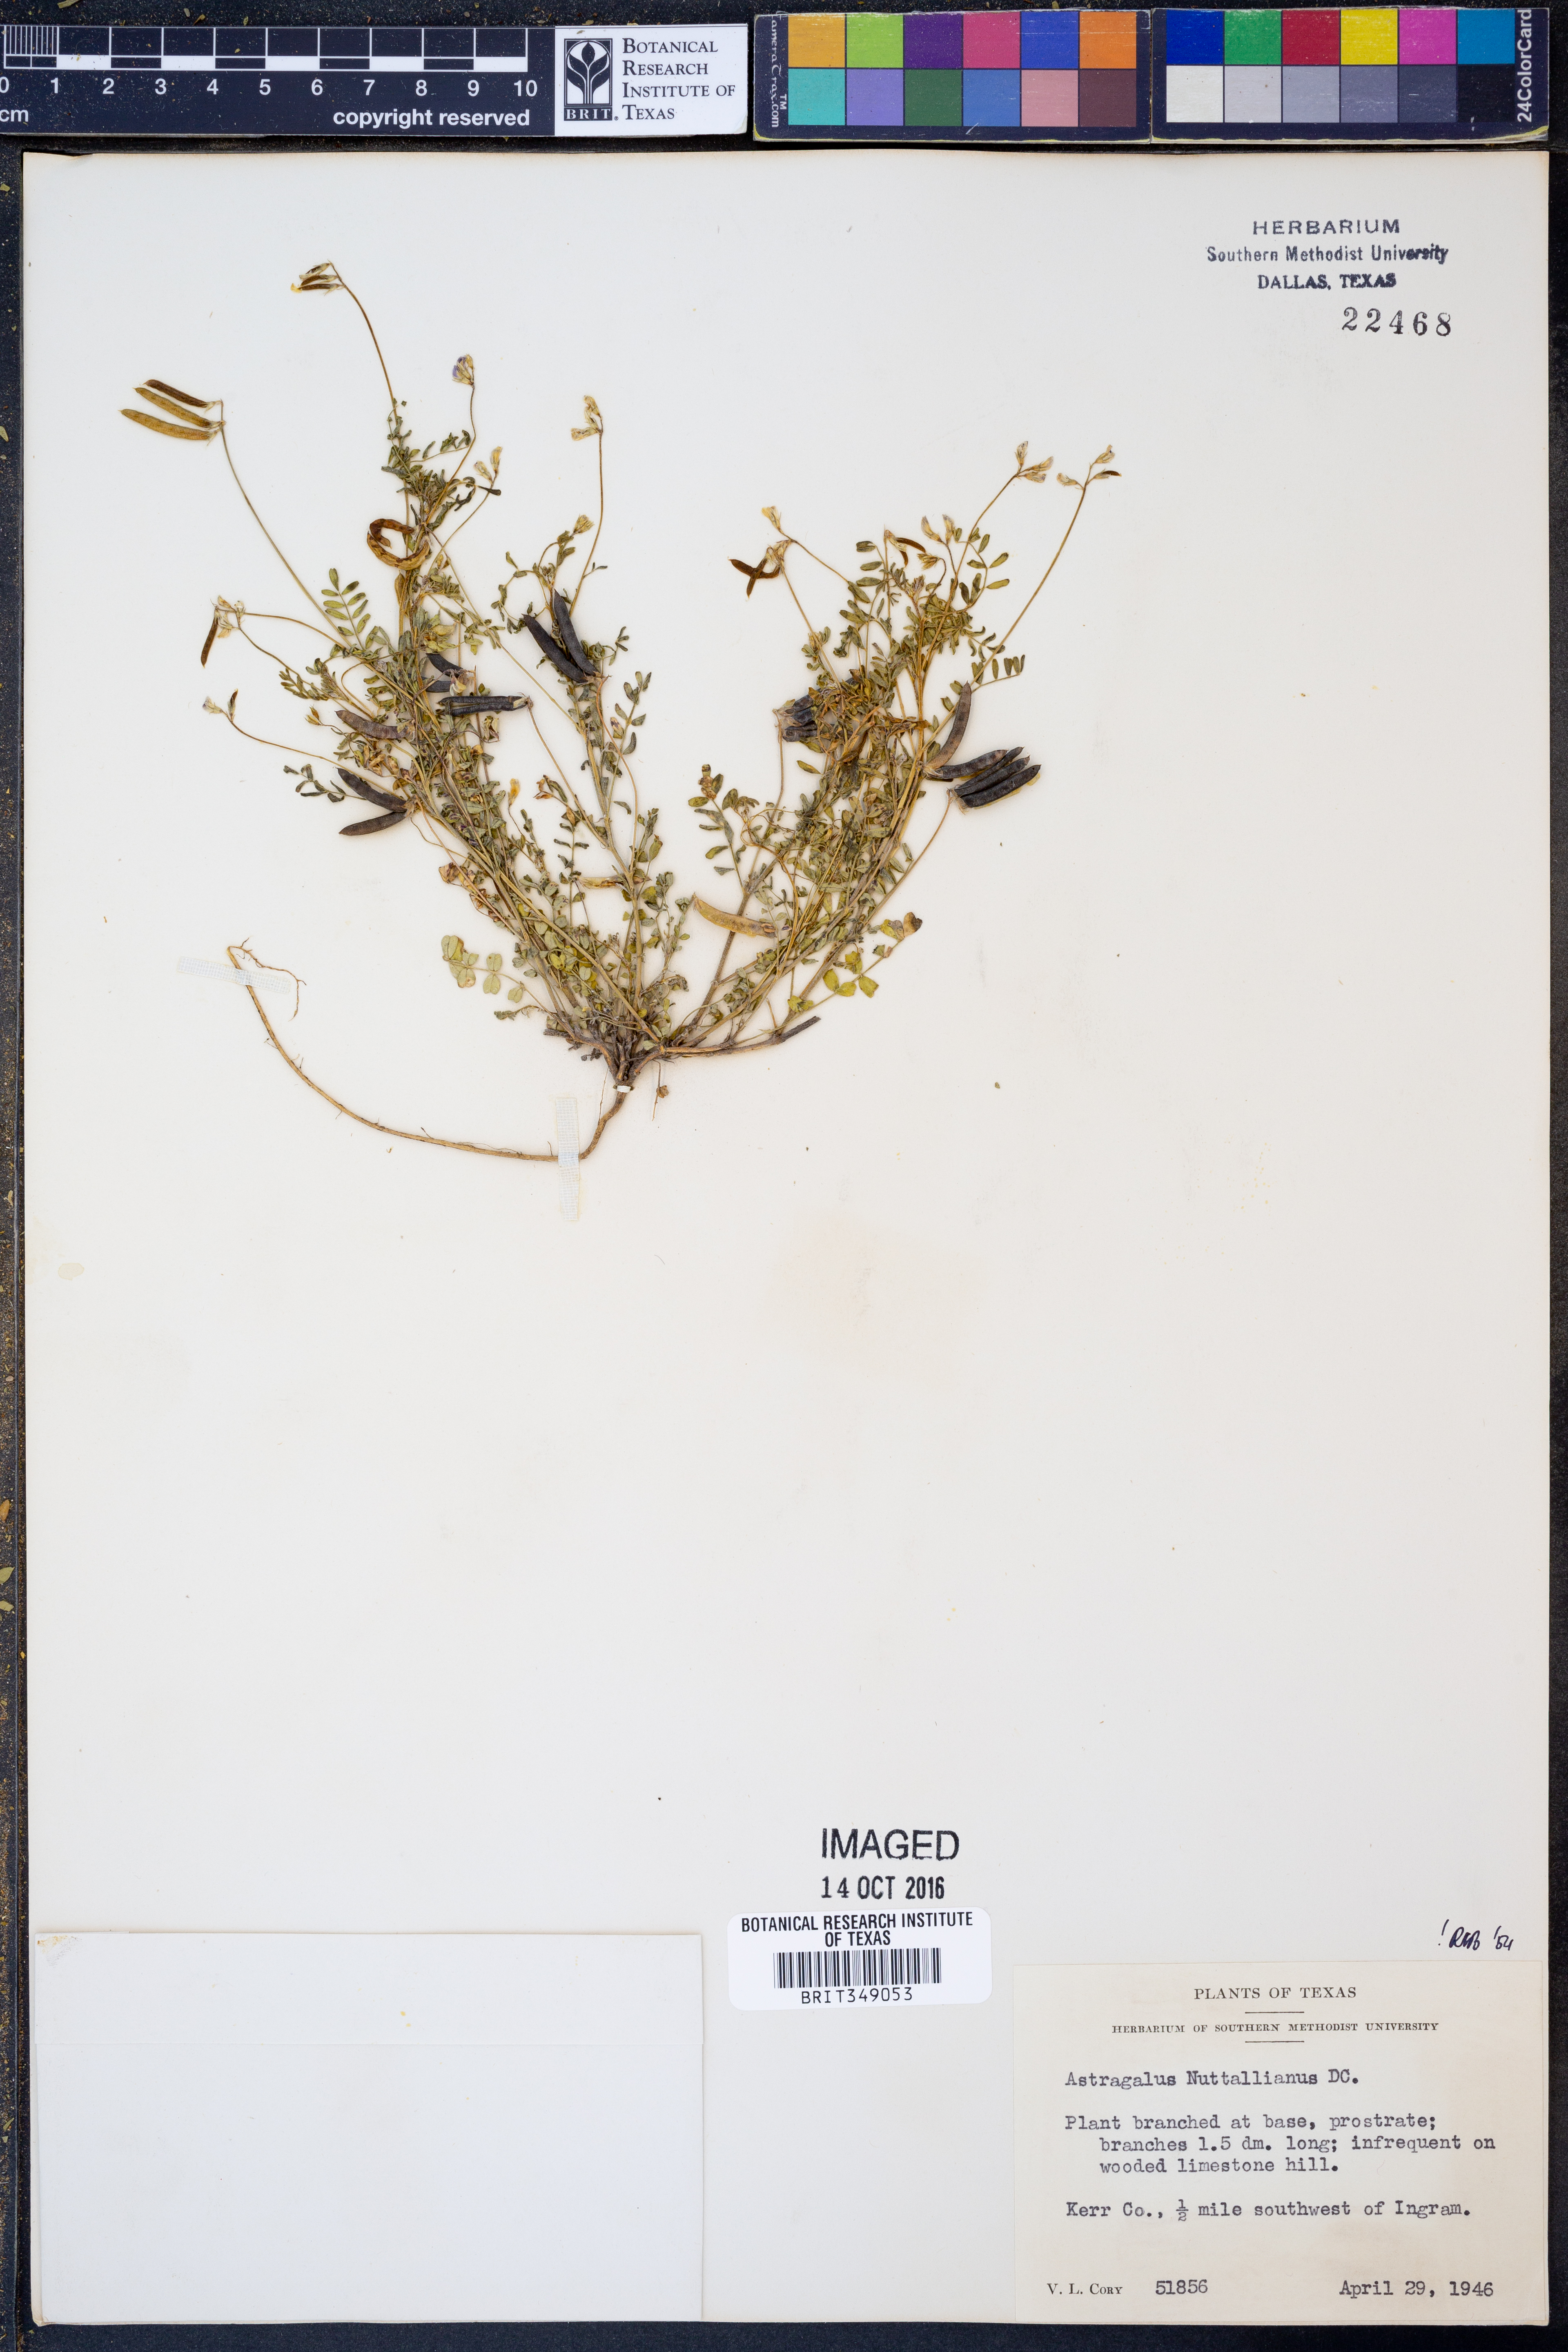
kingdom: Plantae
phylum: Tracheophyta
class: Magnoliopsida
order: Fabales
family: Fabaceae
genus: Astragalus
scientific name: Astragalus nuttallianus
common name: Smallflowered milkvetch
